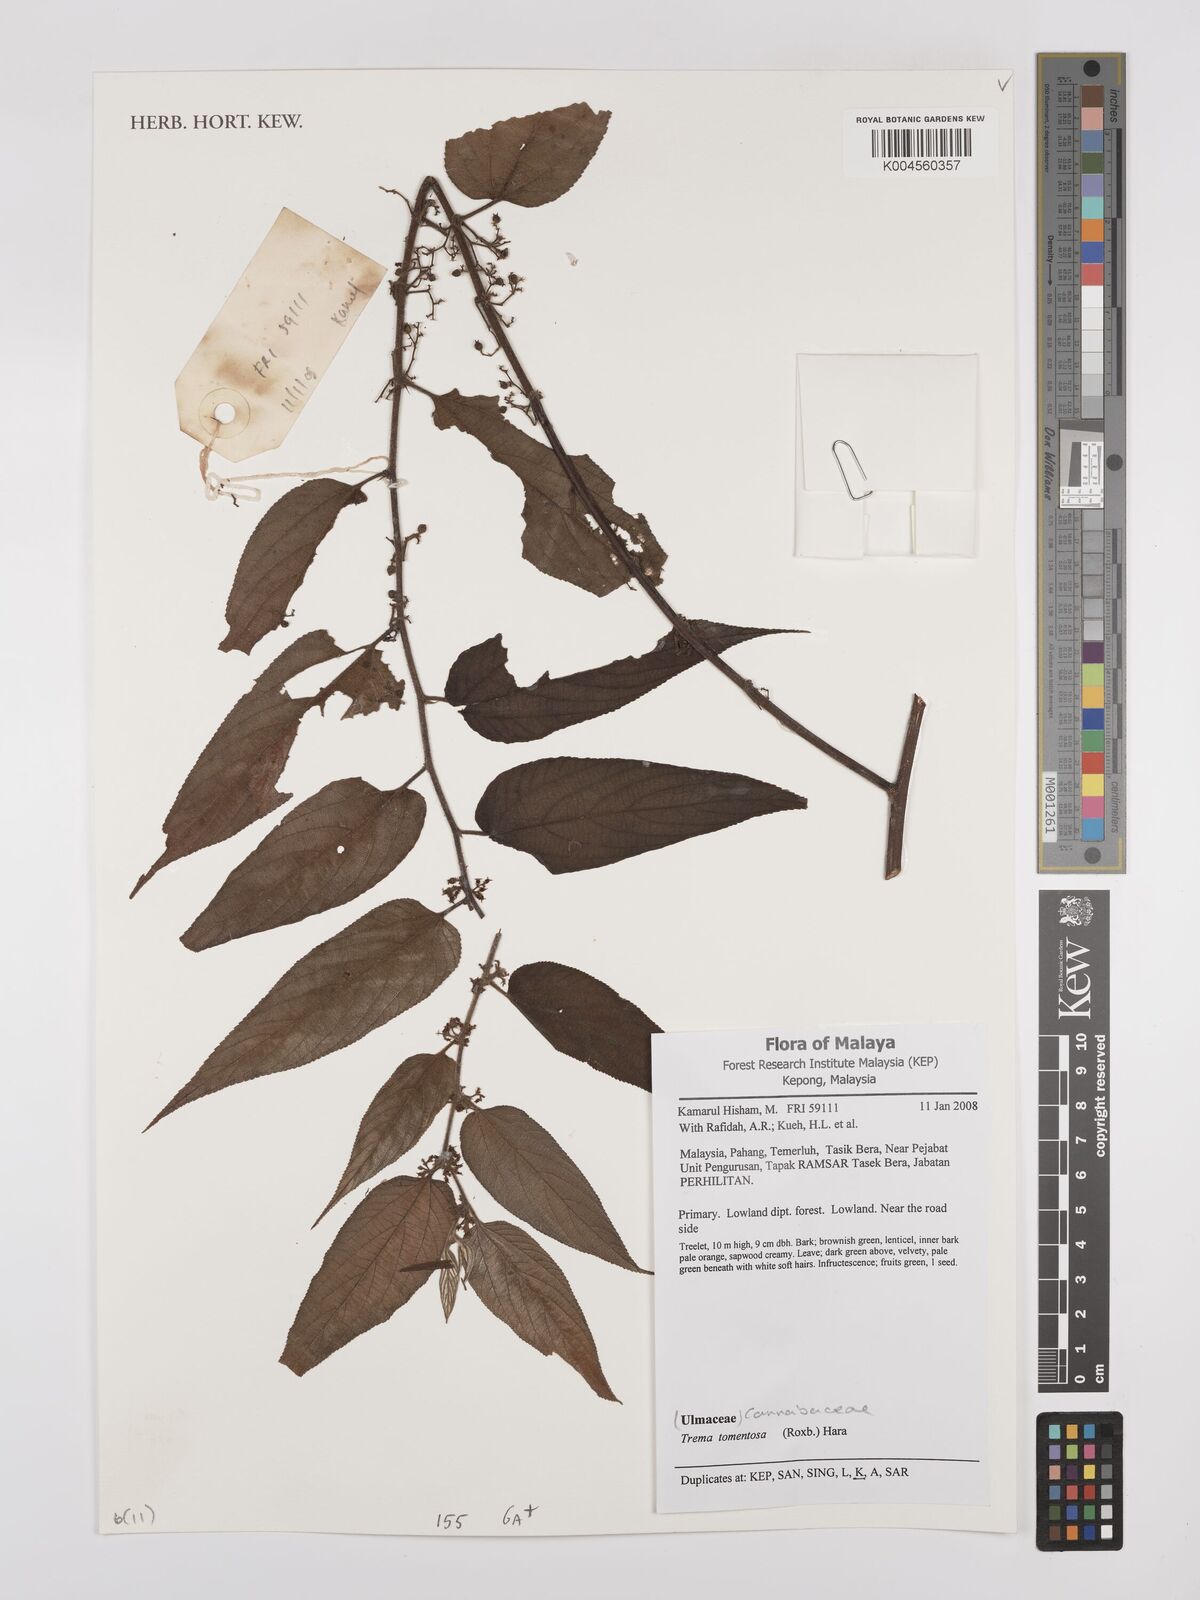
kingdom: Plantae
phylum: Tracheophyta
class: Magnoliopsida
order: Rosales
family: Cannabaceae
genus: Trema
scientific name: Trema tomentosum
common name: Peach-leaf-poisonbush
